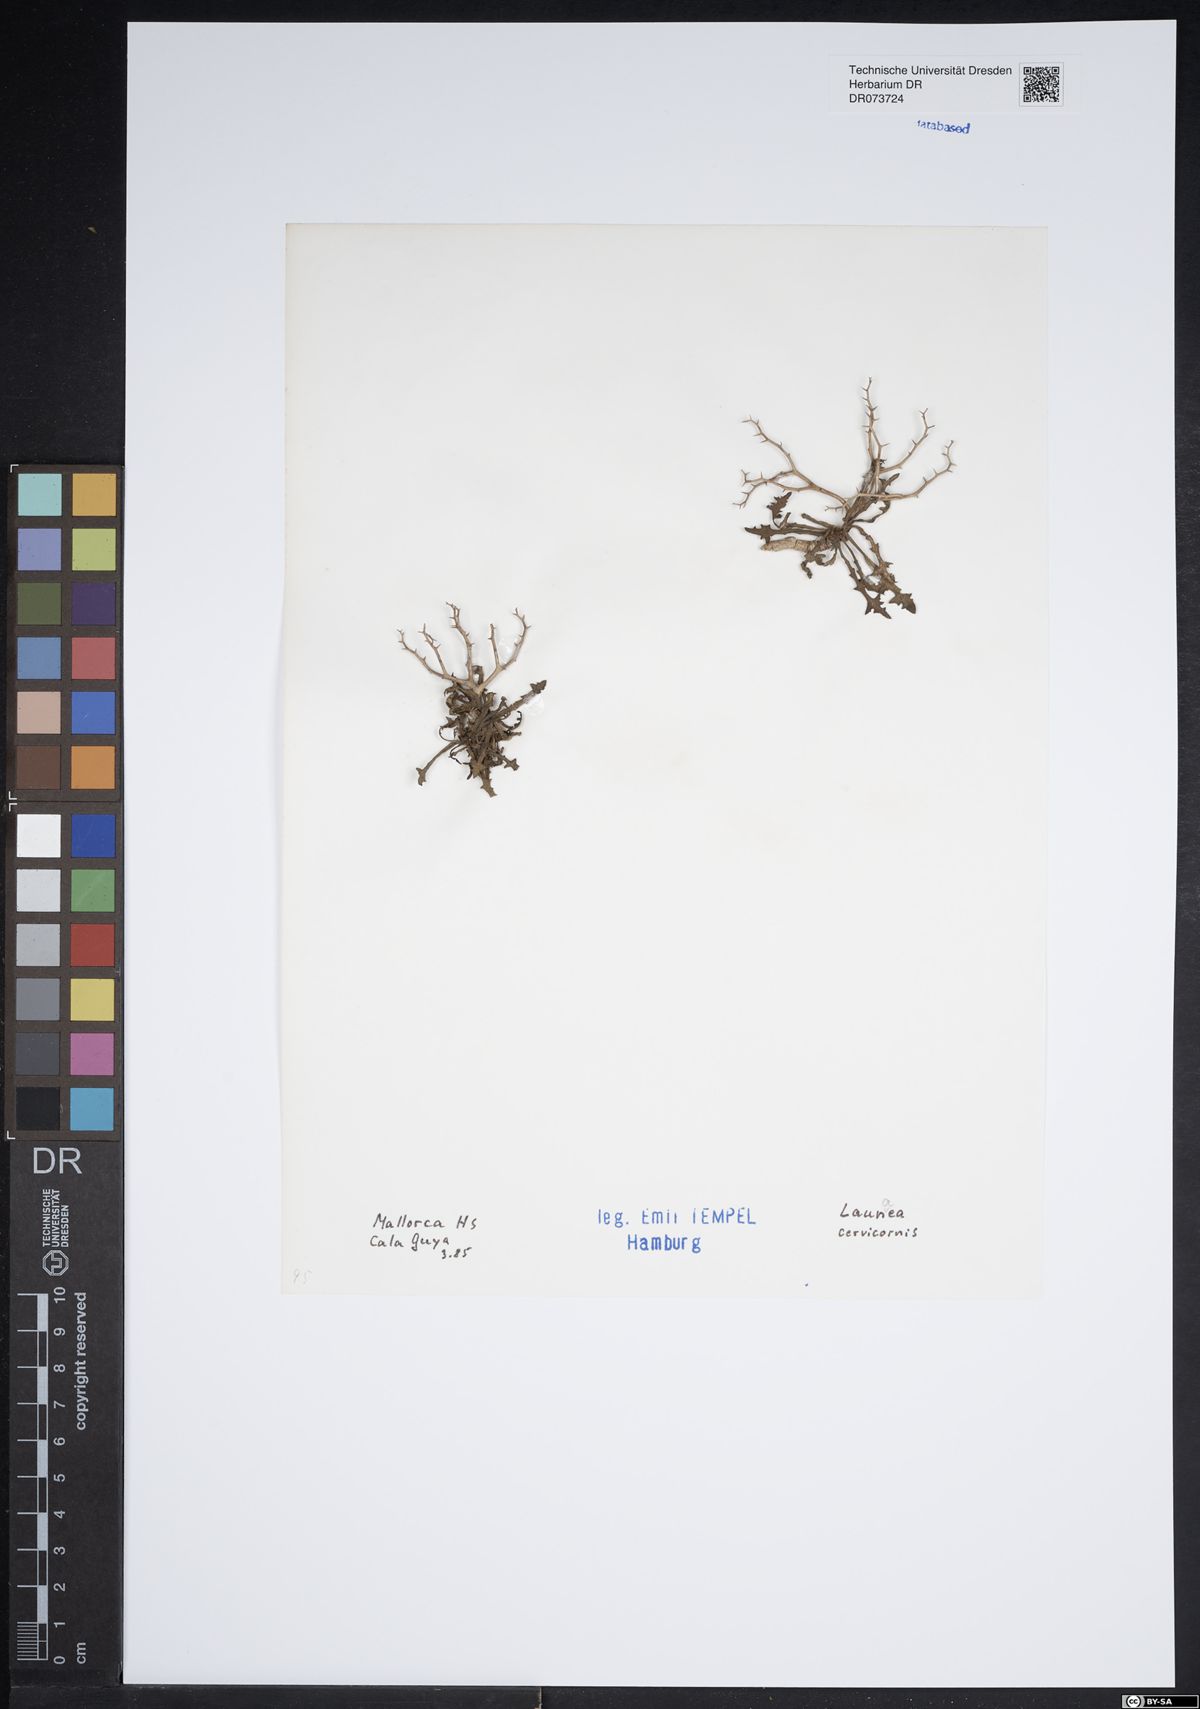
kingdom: Plantae
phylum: Tracheophyta
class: Magnoliopsida
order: Asterales
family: Asteraceae
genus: Launaea
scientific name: Launaea cervicornis
